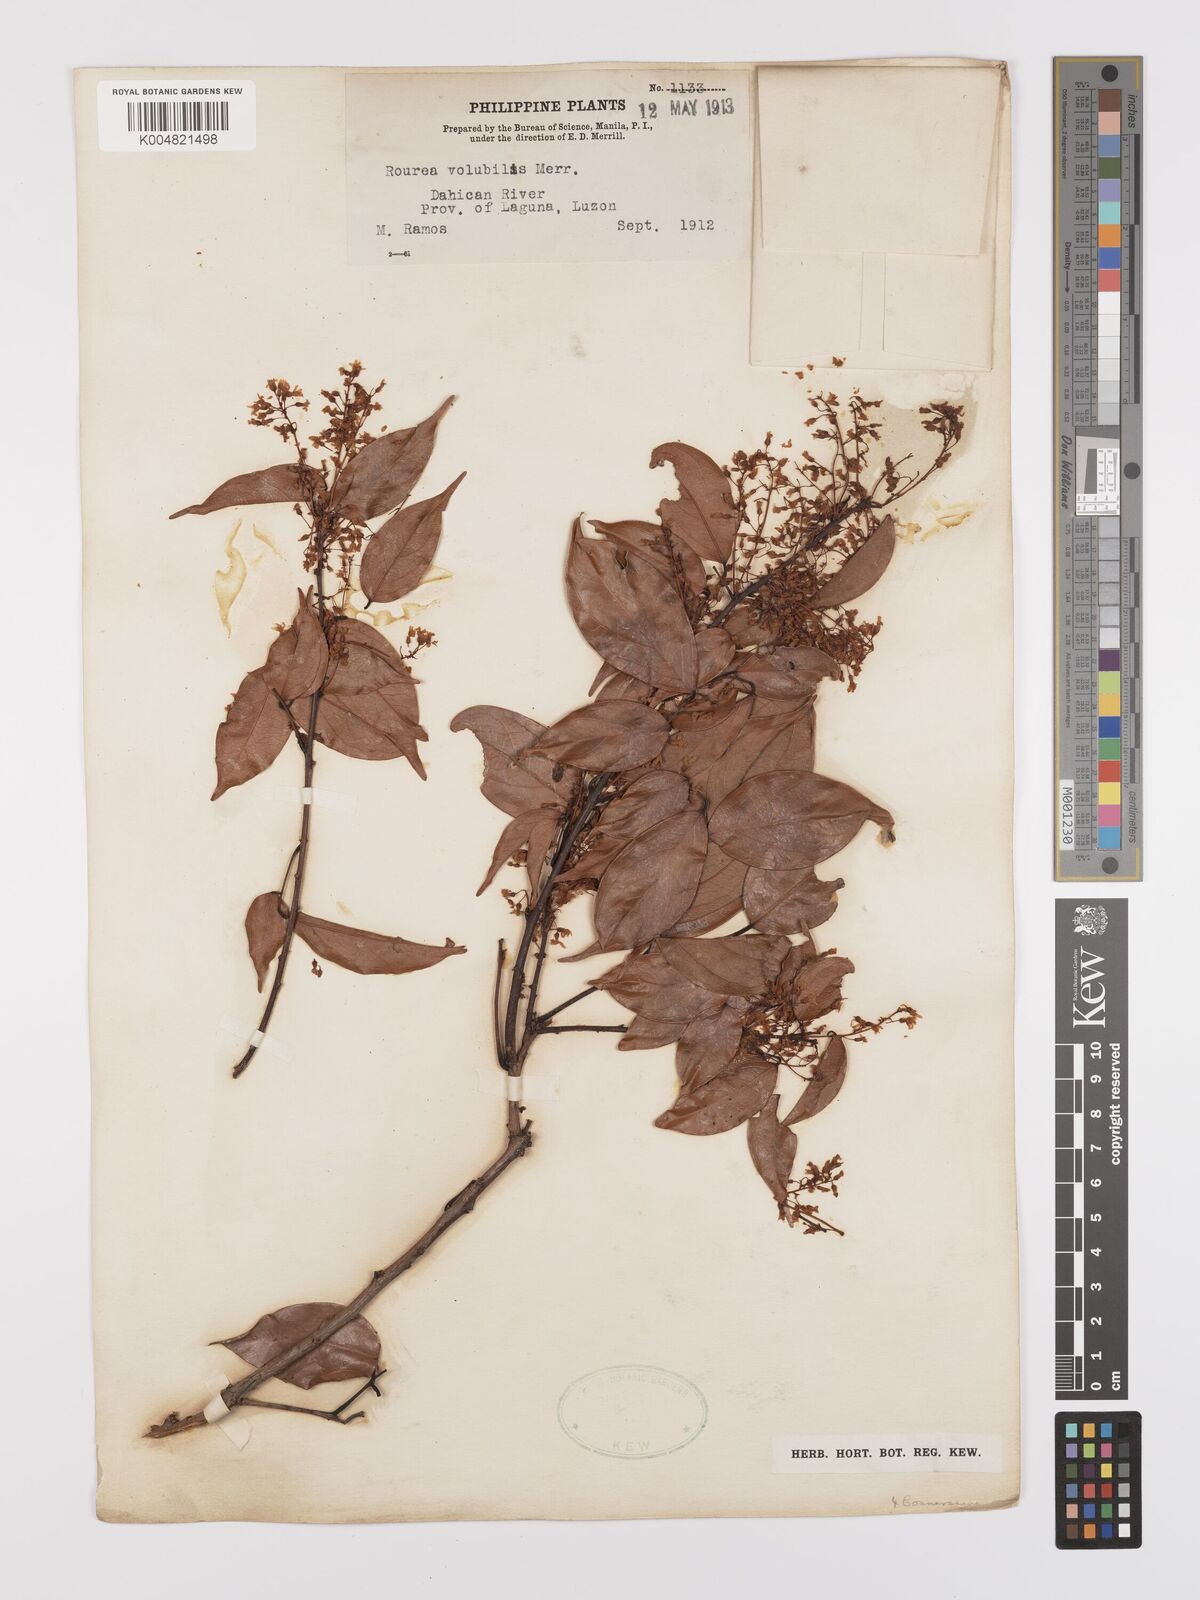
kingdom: Plantae
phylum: Tracheophyta
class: Magnoliopsida
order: Oxalidales
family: Connaraceae
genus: Rourea
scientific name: Rourea minor
